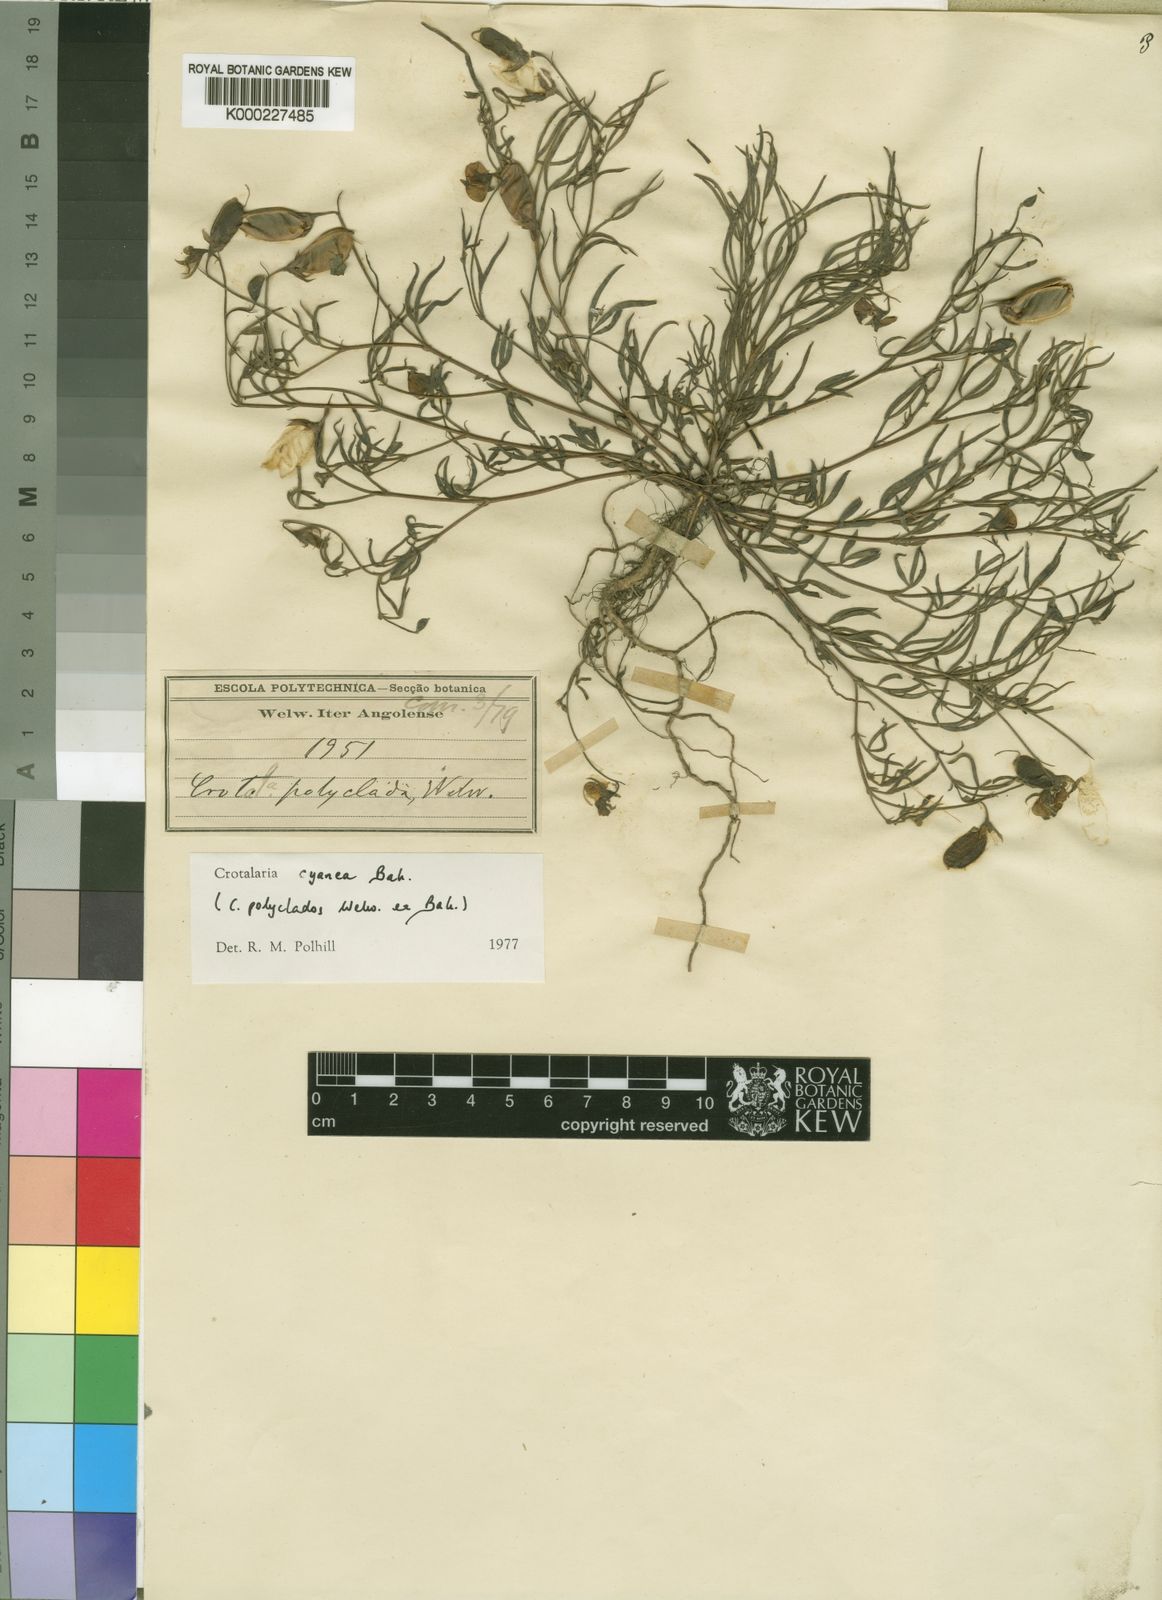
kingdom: Plantae
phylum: Tracheophyta
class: Magnoliopsida
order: Fabales
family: Fabaceae
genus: Crotalaria
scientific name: Crotalaria cyanea
